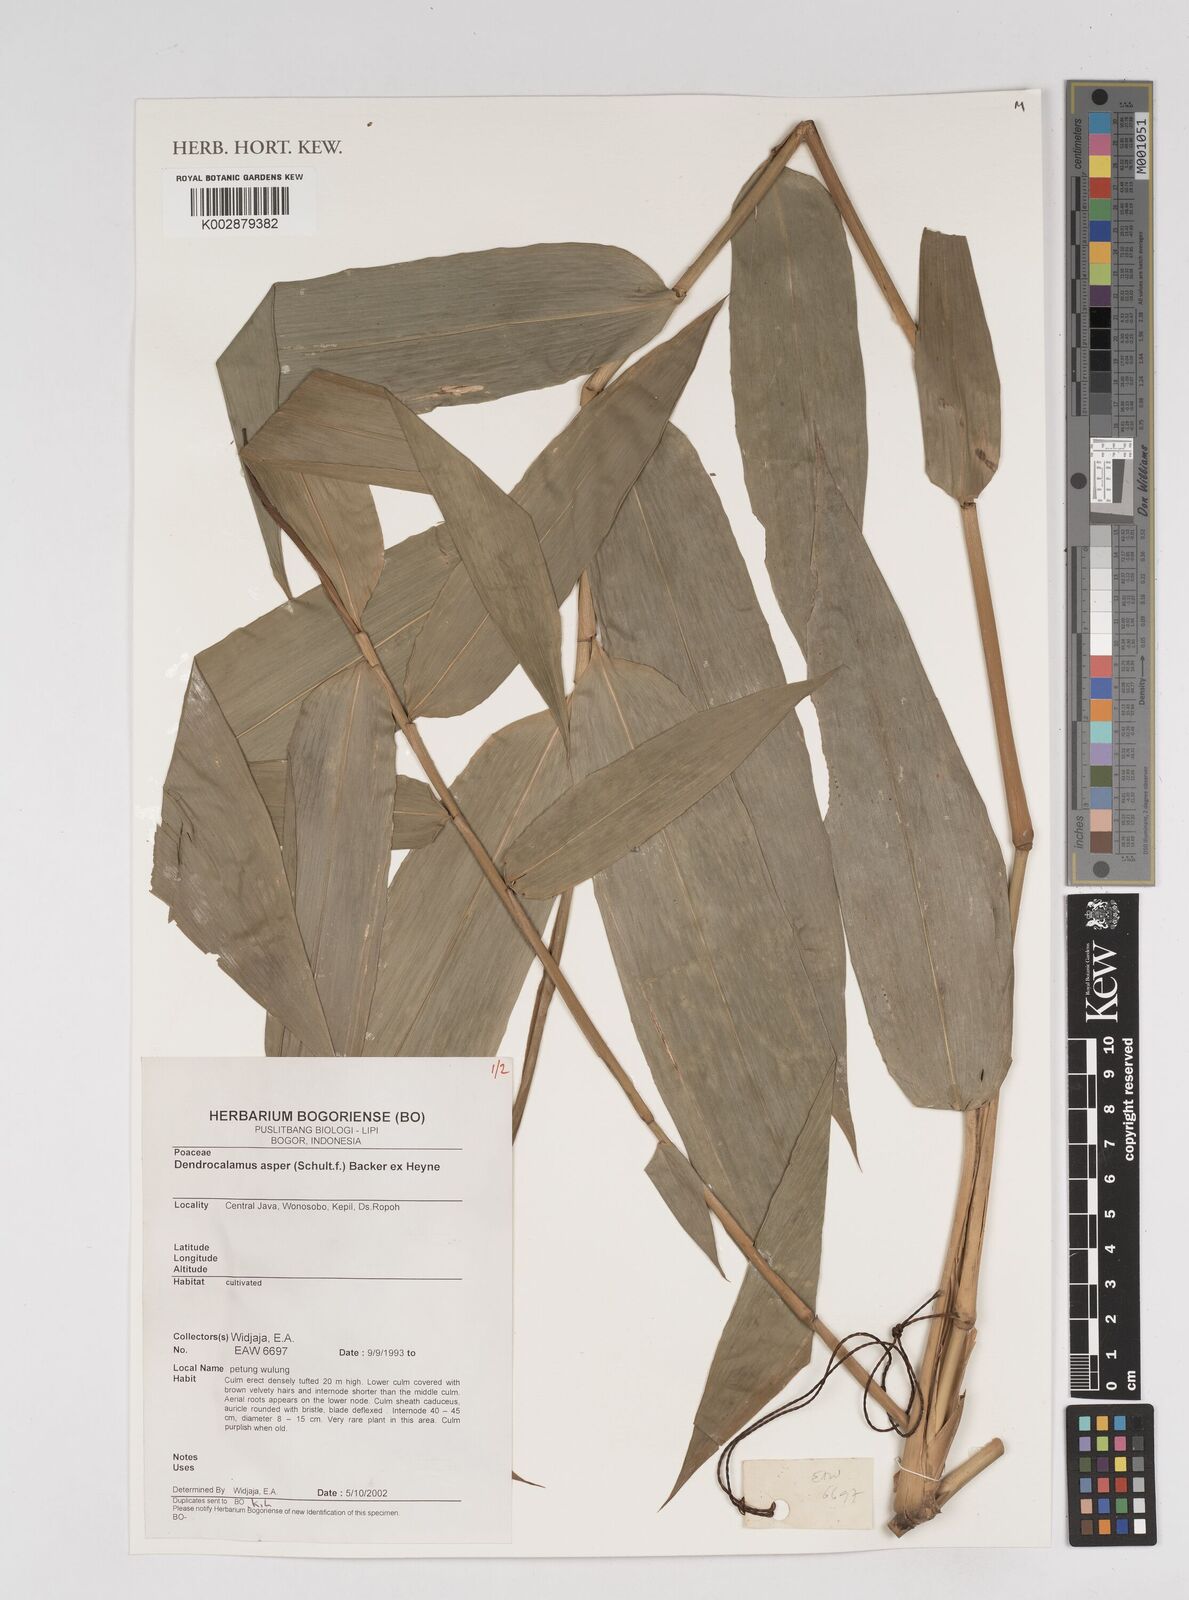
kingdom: Plantae
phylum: Tracheophyta
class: Liliopsida
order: Poales
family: Poaceae
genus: Dendrocalamus
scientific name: Dendrocalamus asper
